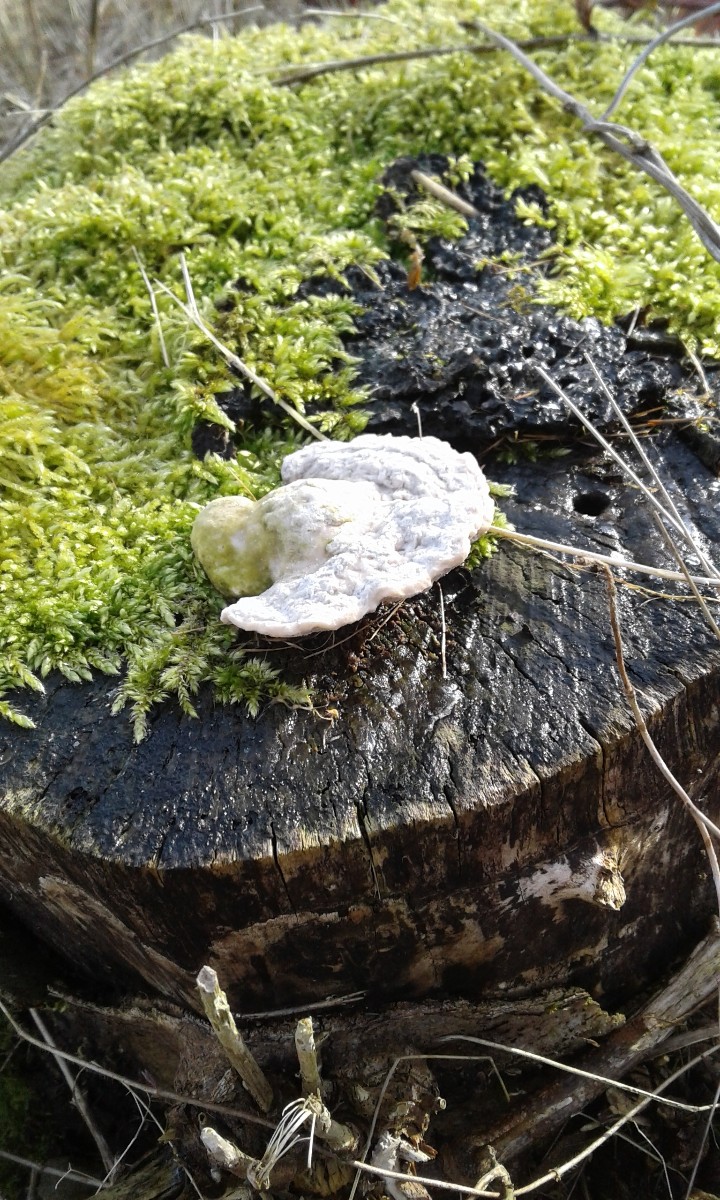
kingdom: Fungi
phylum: Basidiomycota
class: Agaricomycetes
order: Polyporales
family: Polyporaceae
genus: Trametes
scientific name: Trametes gibbosa
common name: puklet læderporesvamp
